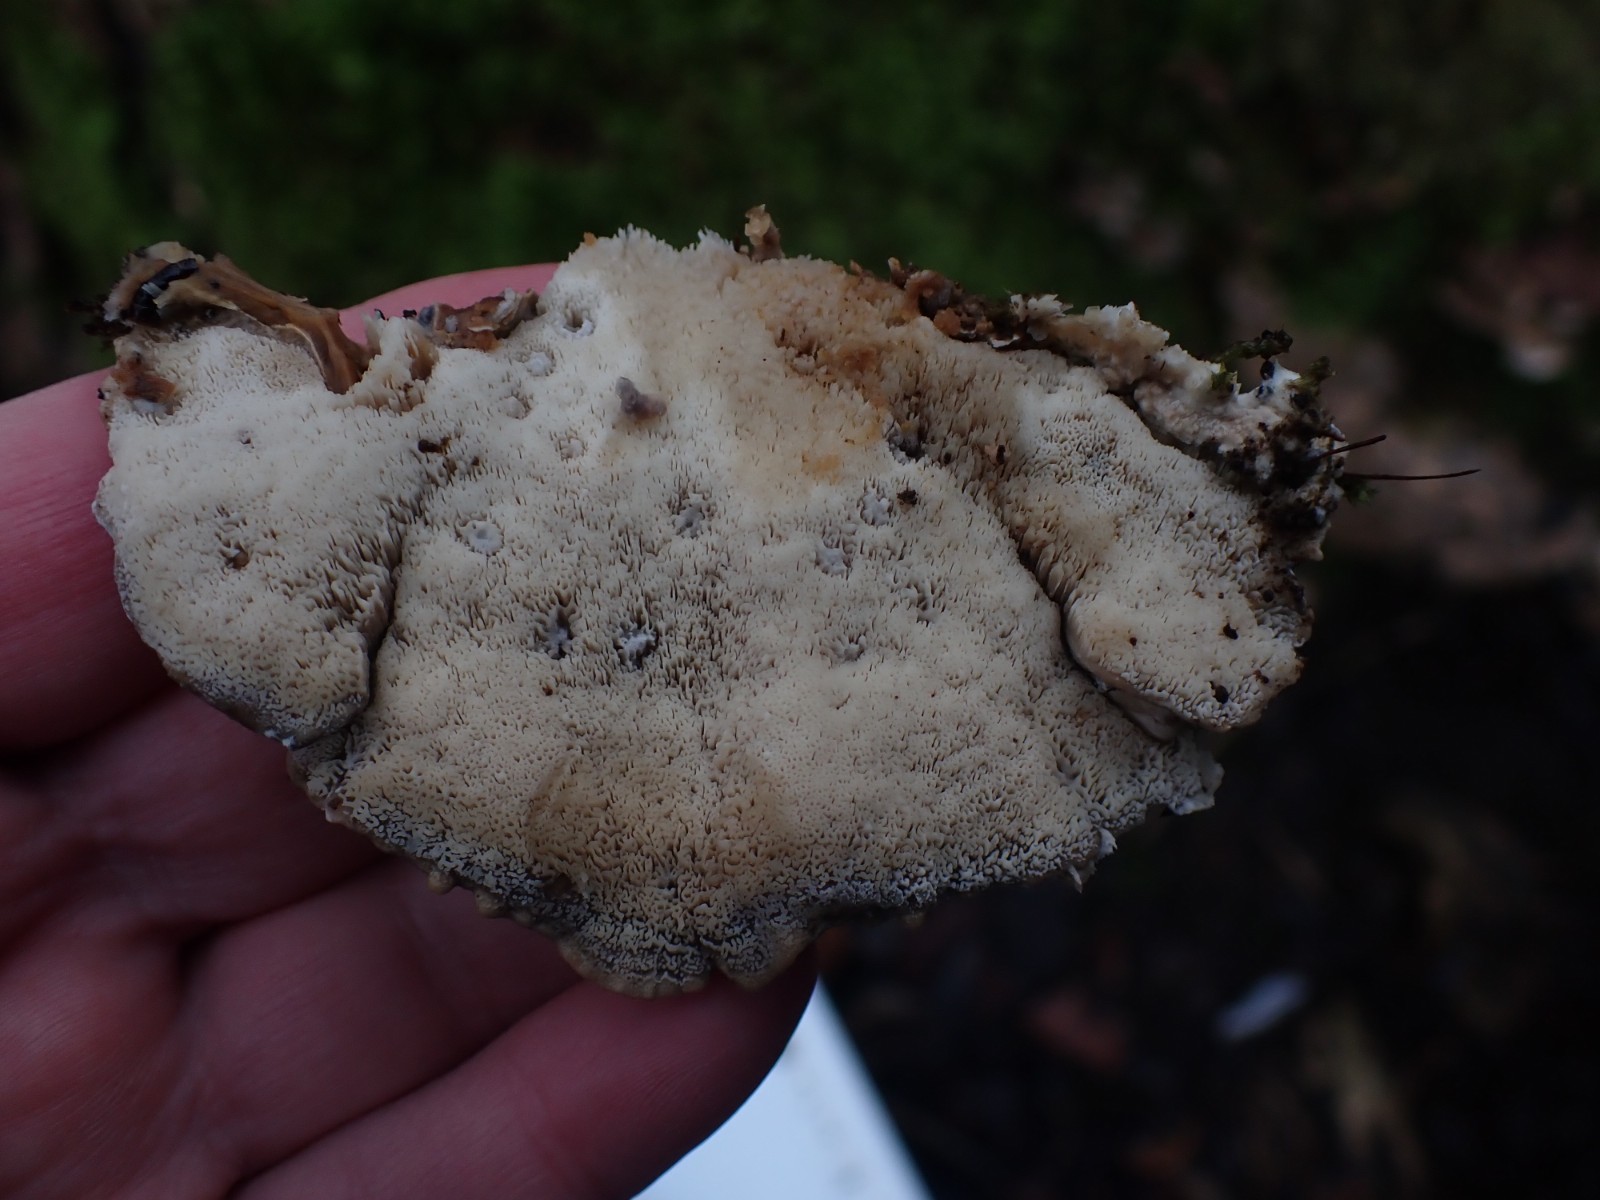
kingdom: Fungi
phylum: Basidiomycota
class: Agaricomycetes
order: Polyporales
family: Phanerochaetaceae
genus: Bjerkandera
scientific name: Bjerkandera fumosa
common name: grågul sodporesvamp
